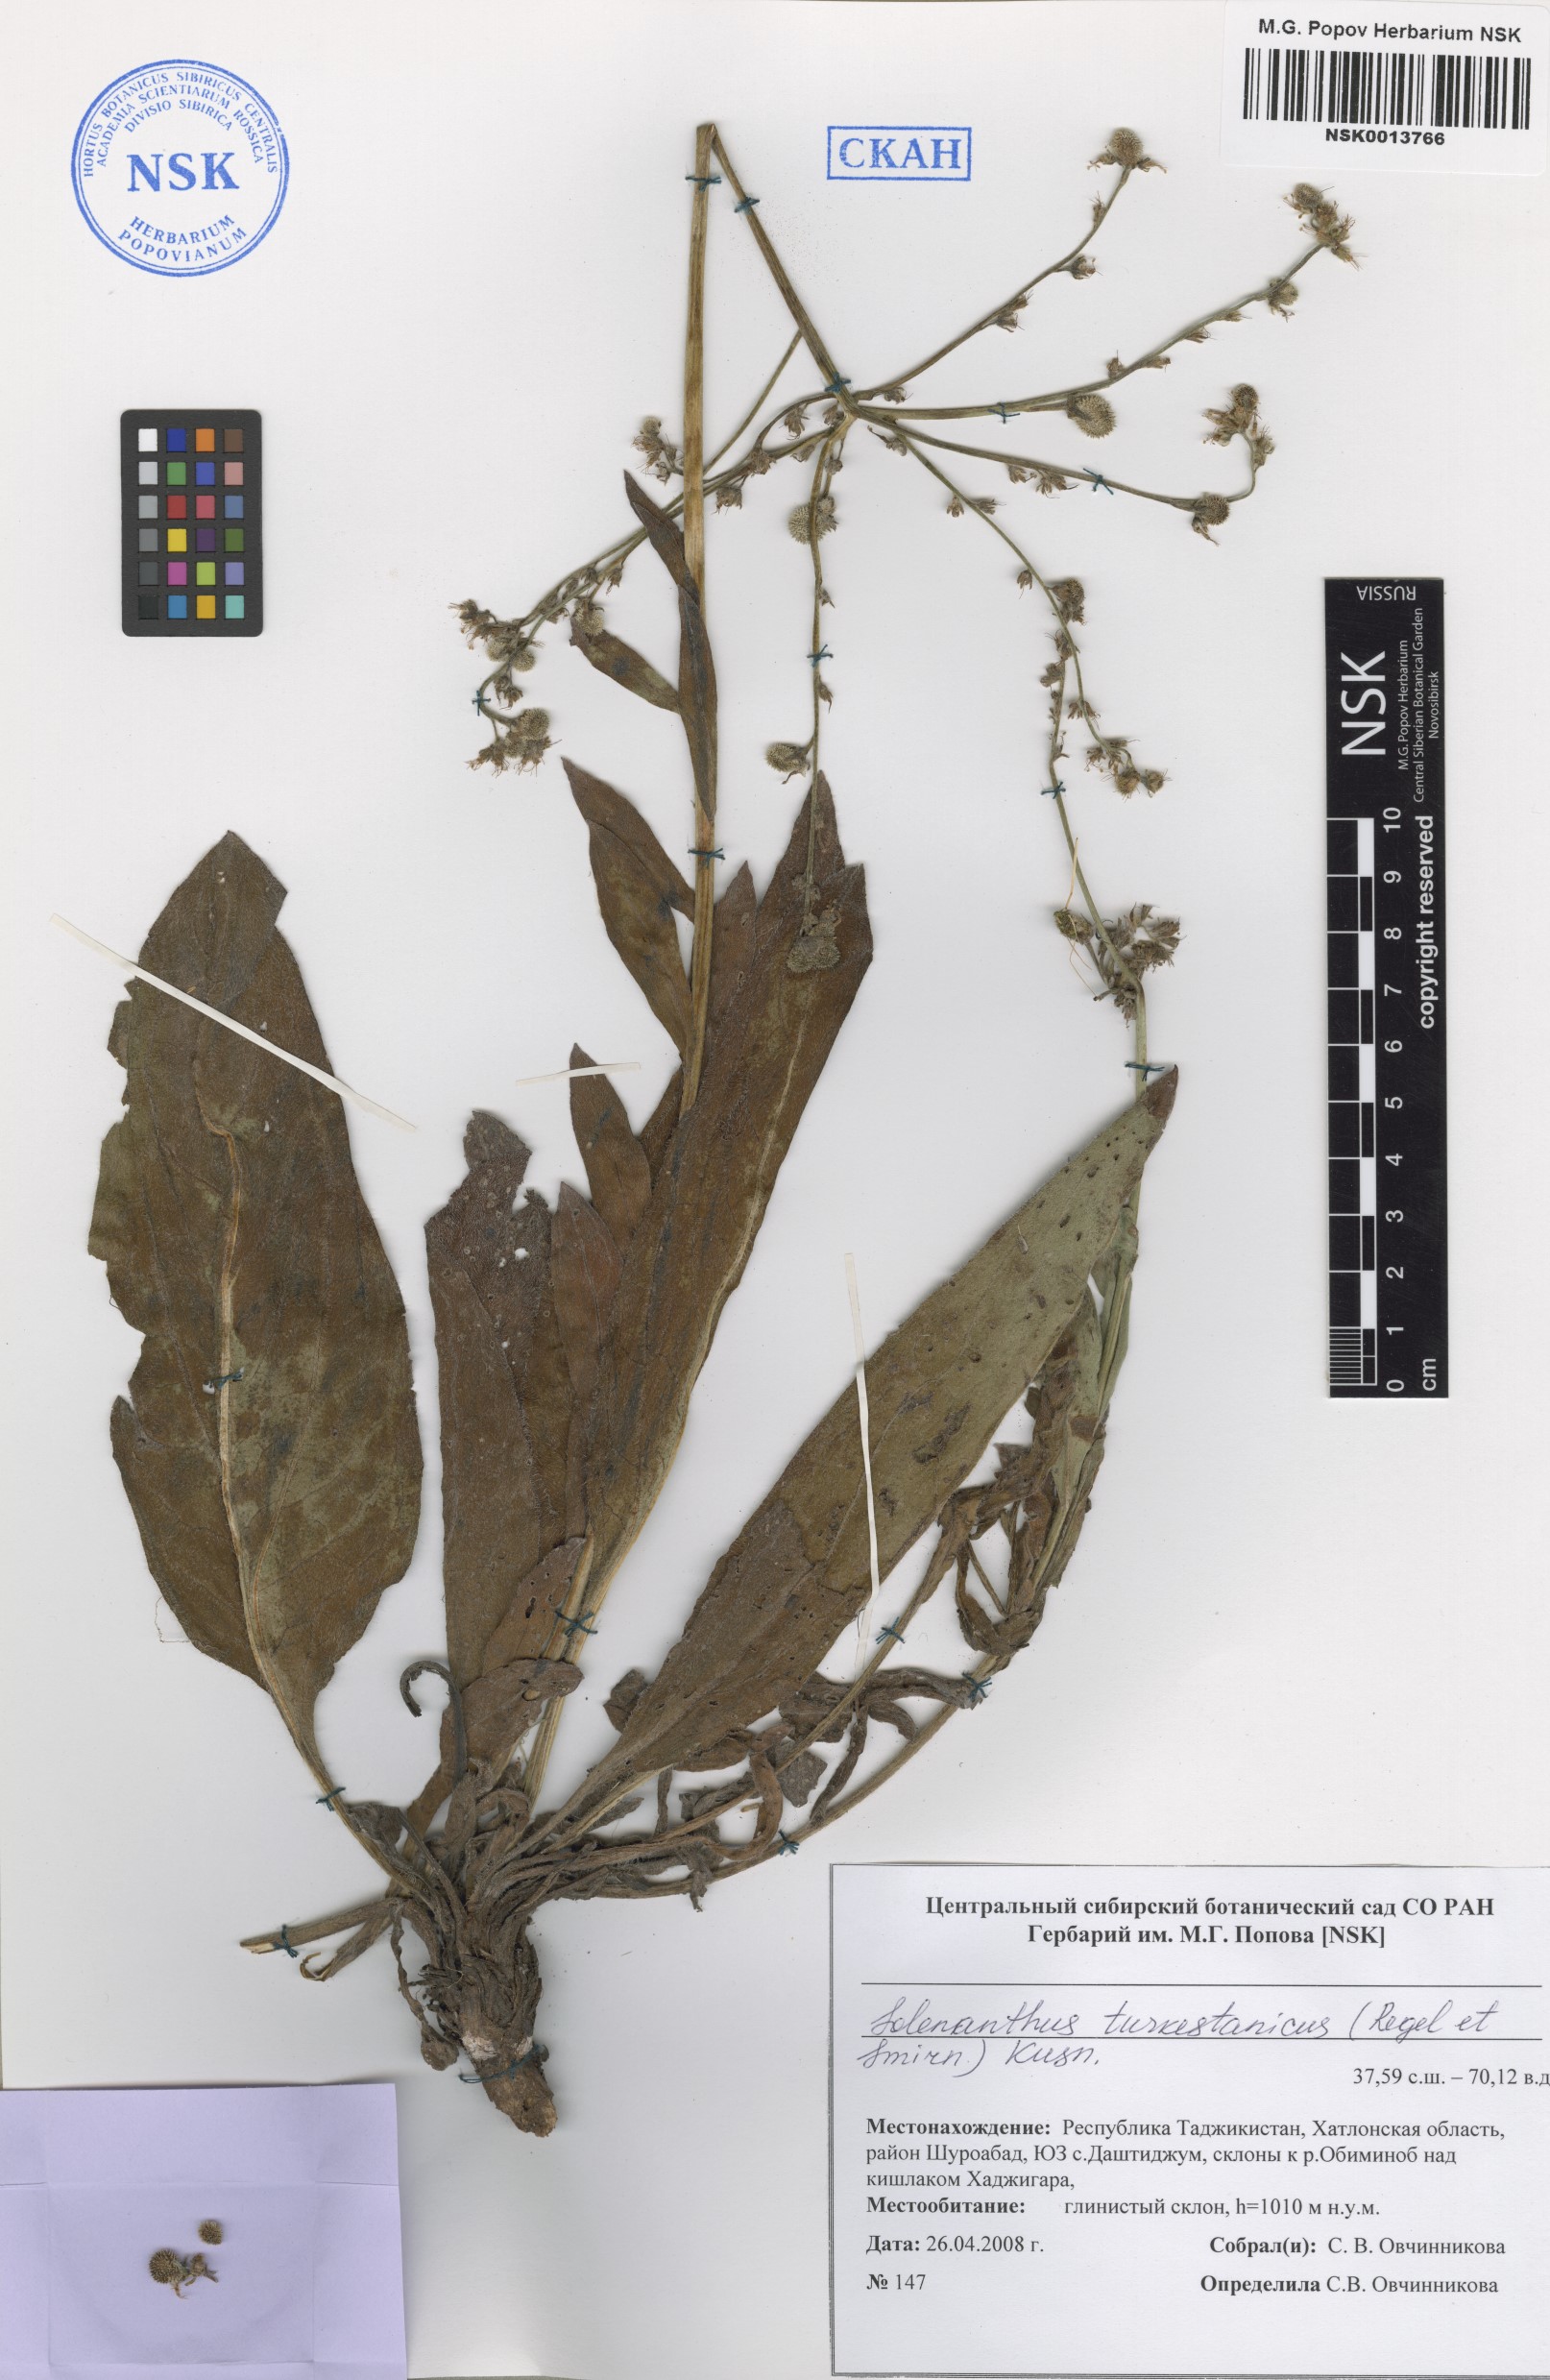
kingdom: Plantae
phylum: Tracheophyta
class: Magnoliopsida
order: Boraginales
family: Boraginaceae
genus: Solenanthus
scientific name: Solenanthus turkestanicus
